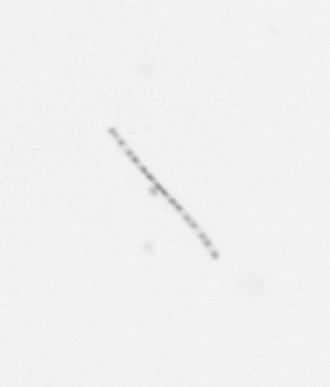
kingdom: Chromista
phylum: Ochrophyta
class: Bacillariophyceae
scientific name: Bacillariophyceae
